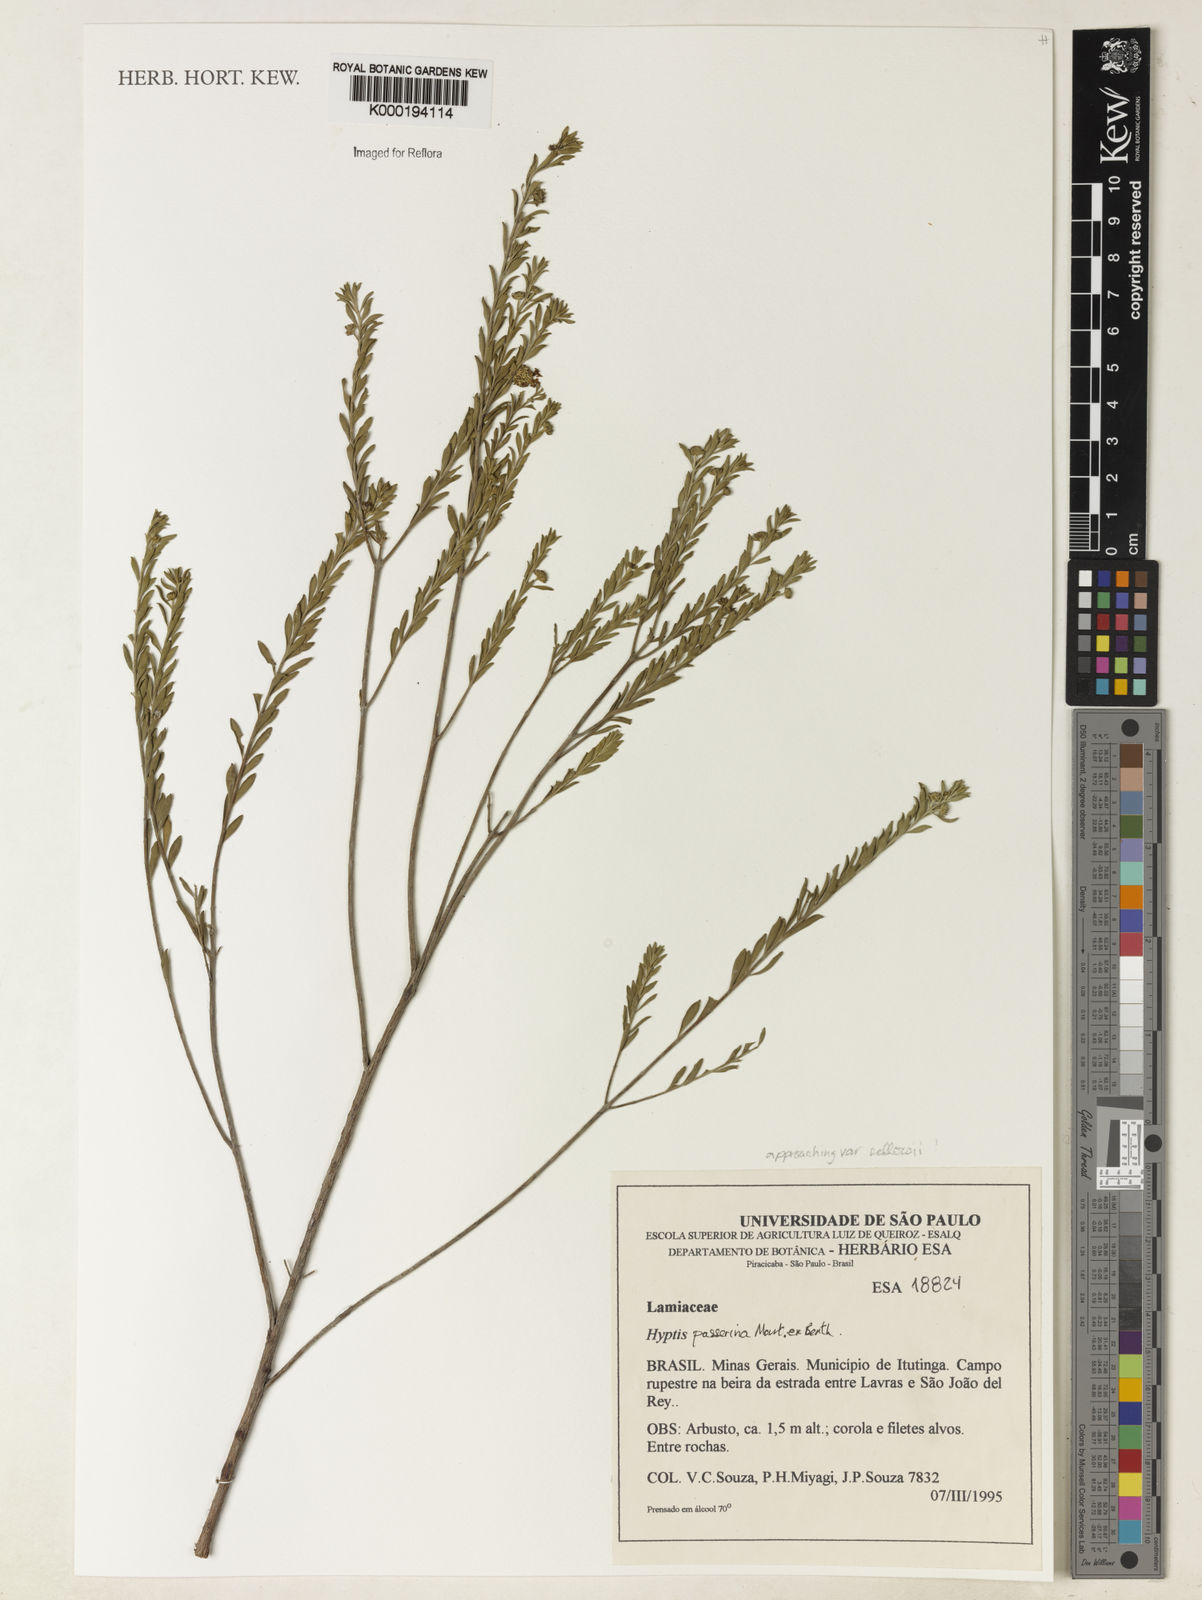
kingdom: Plantae
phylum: Tracheophyta
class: Magnoliopsida
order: Lamiales
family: Lamiaceae
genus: Hyptis
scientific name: Hyptis passerina
